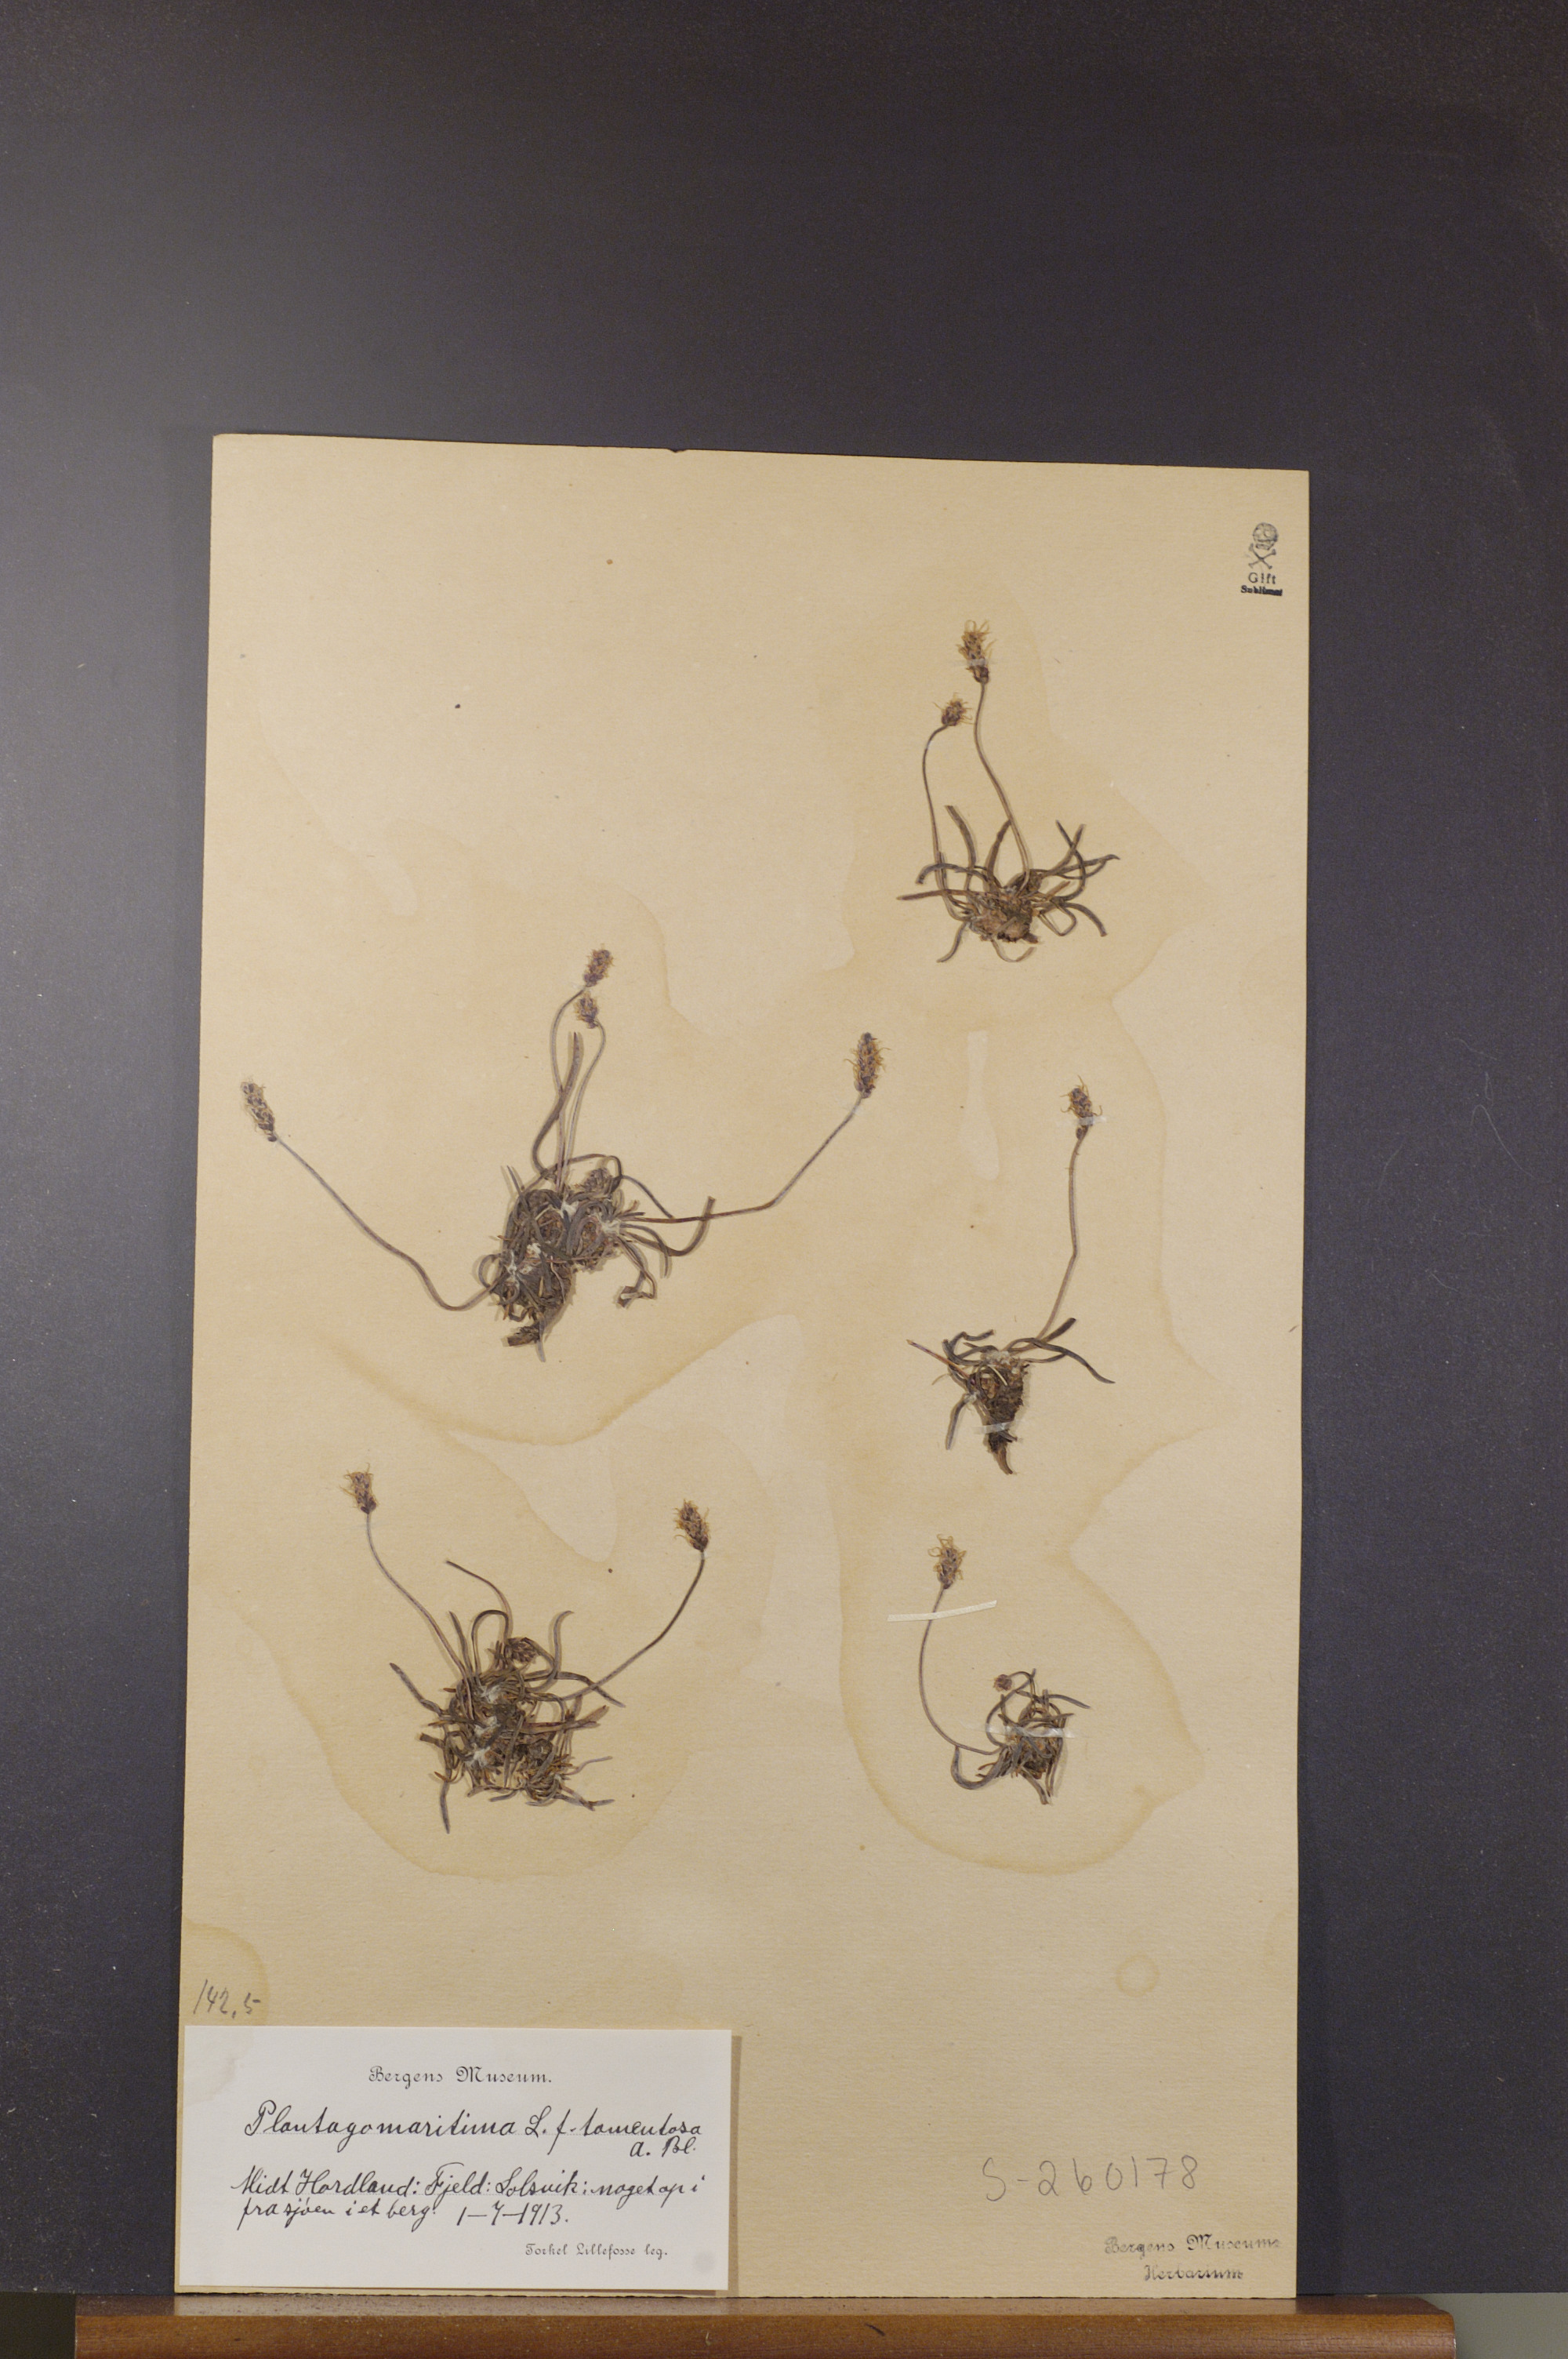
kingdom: Plantae
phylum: Tracheophyta
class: Magnoliopsida
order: Lamiales
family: Plantaginaceae
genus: Plantago
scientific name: Plantago maritima
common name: Sea plantain
